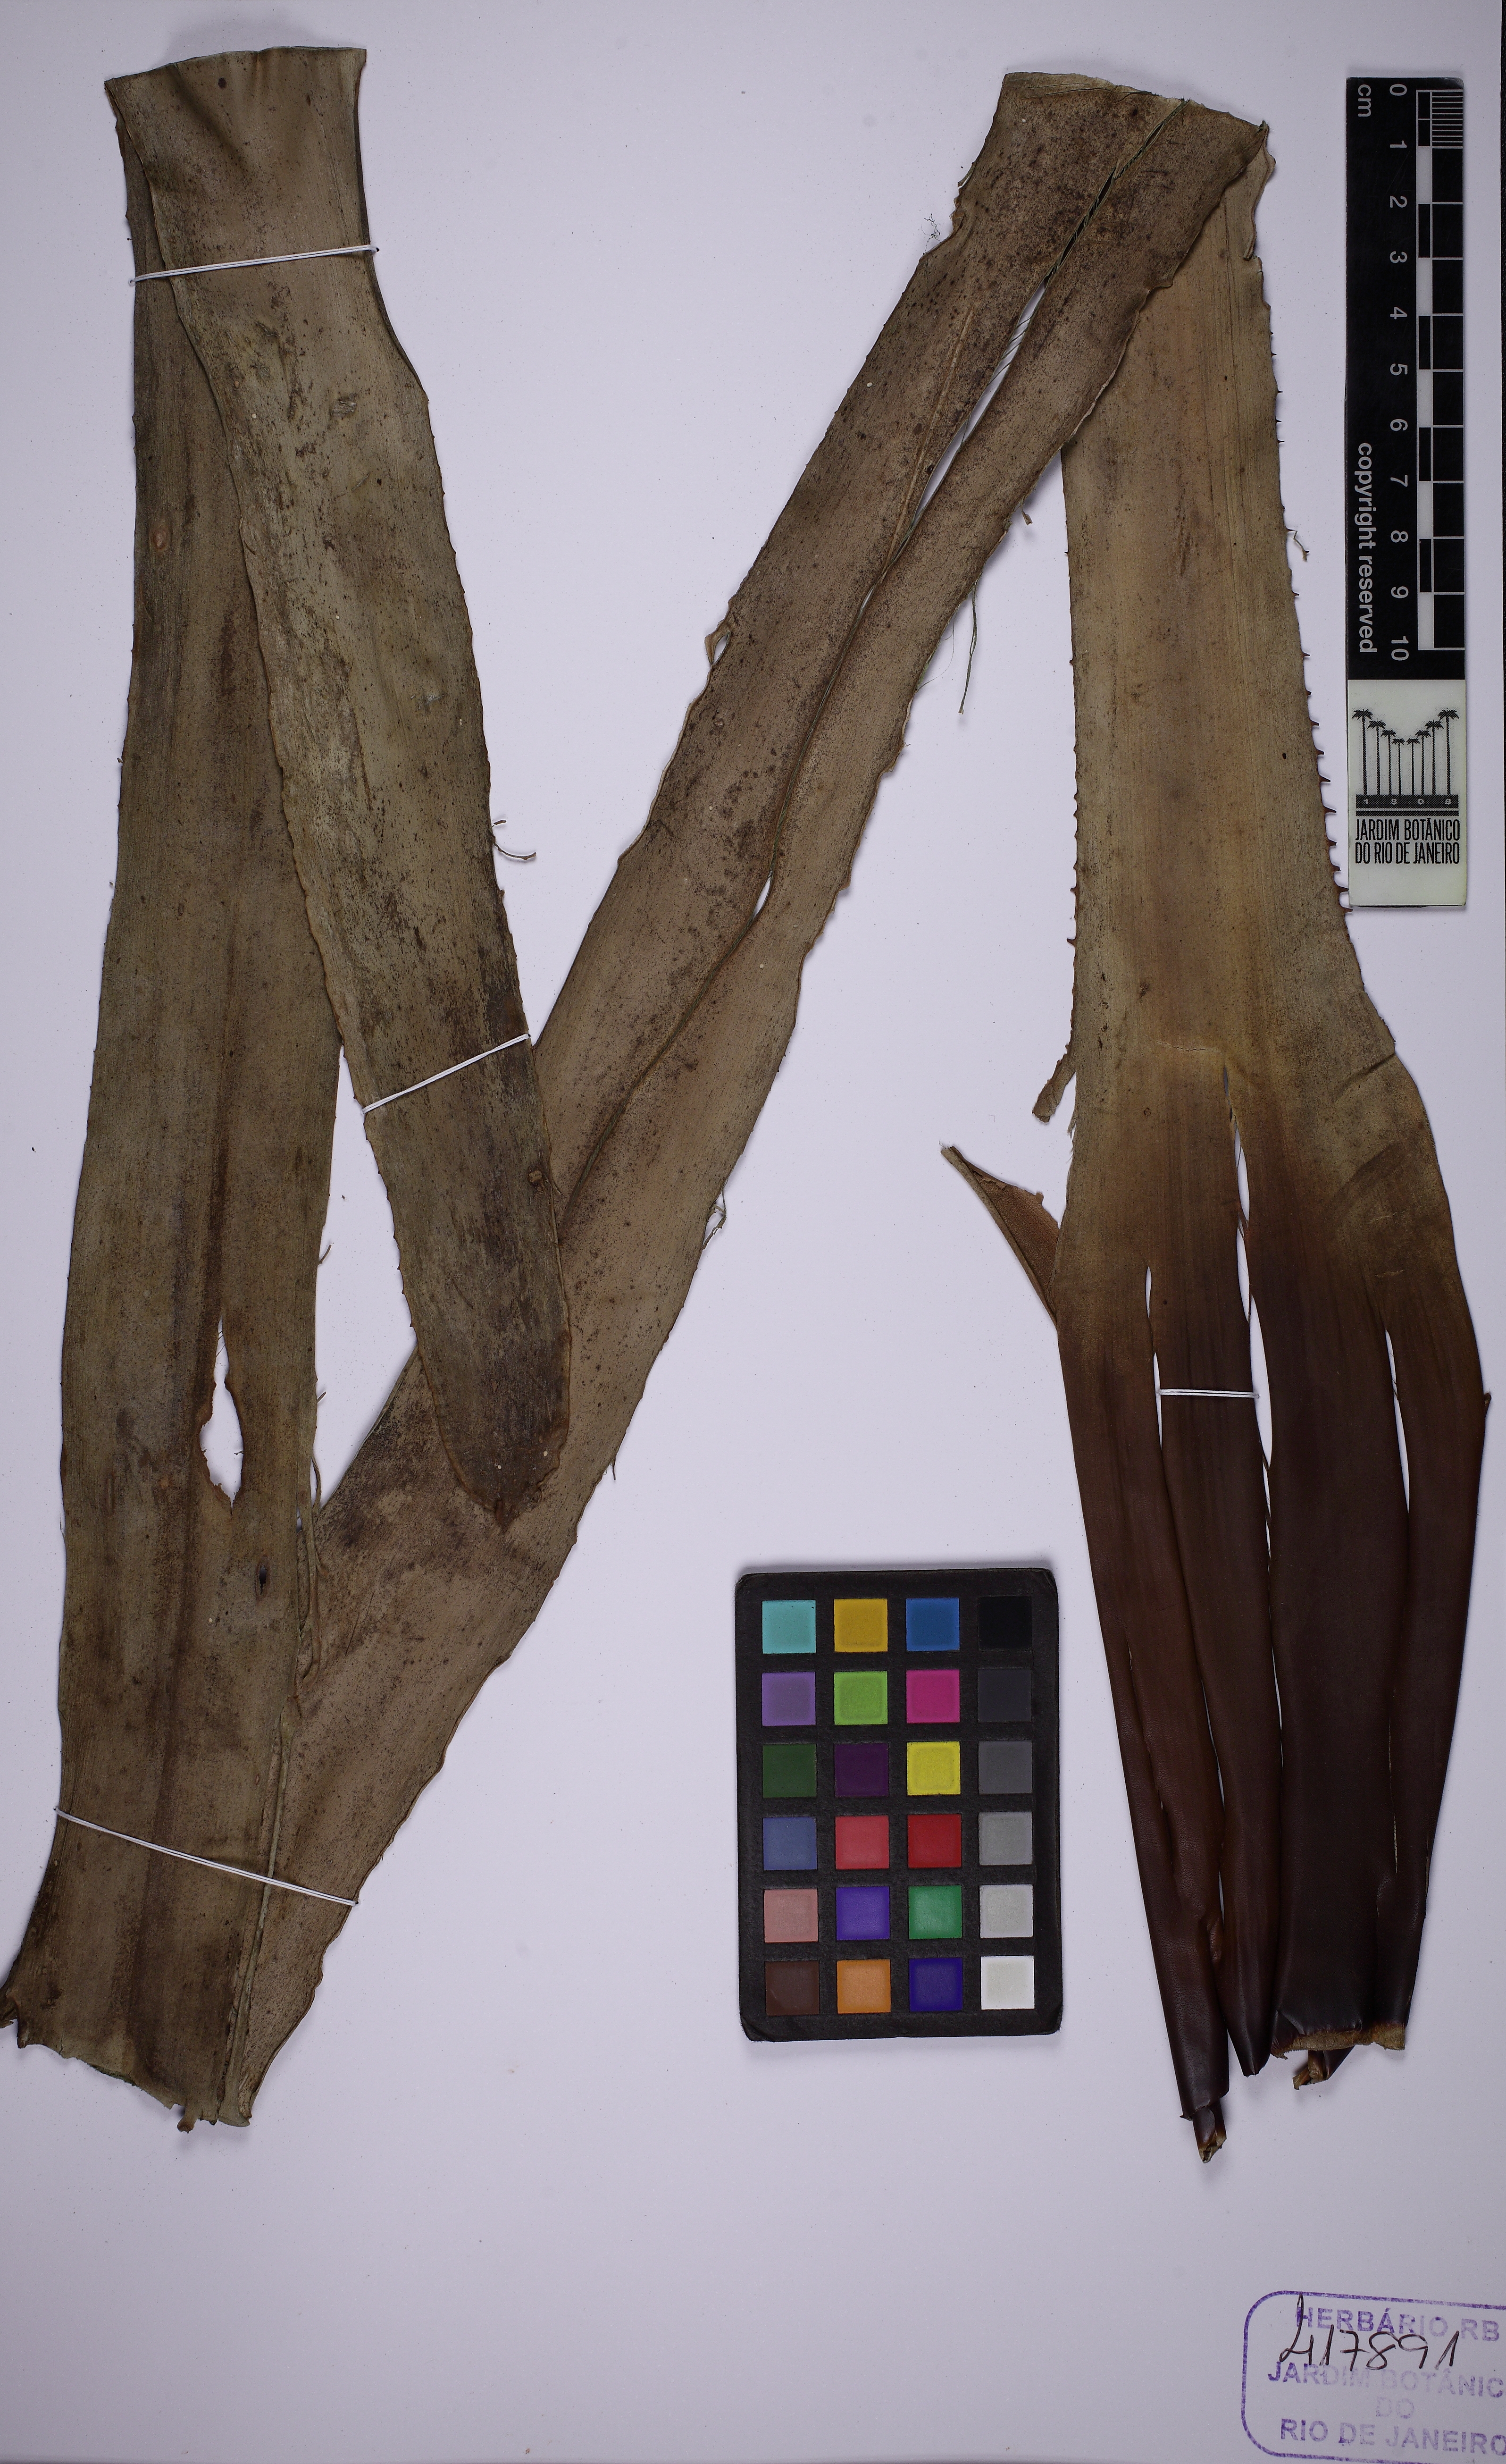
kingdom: Plantae
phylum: Tracheophyta
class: Liliopsida
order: Poales
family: Bromeliaceae
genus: Portea
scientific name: Portea filifera
